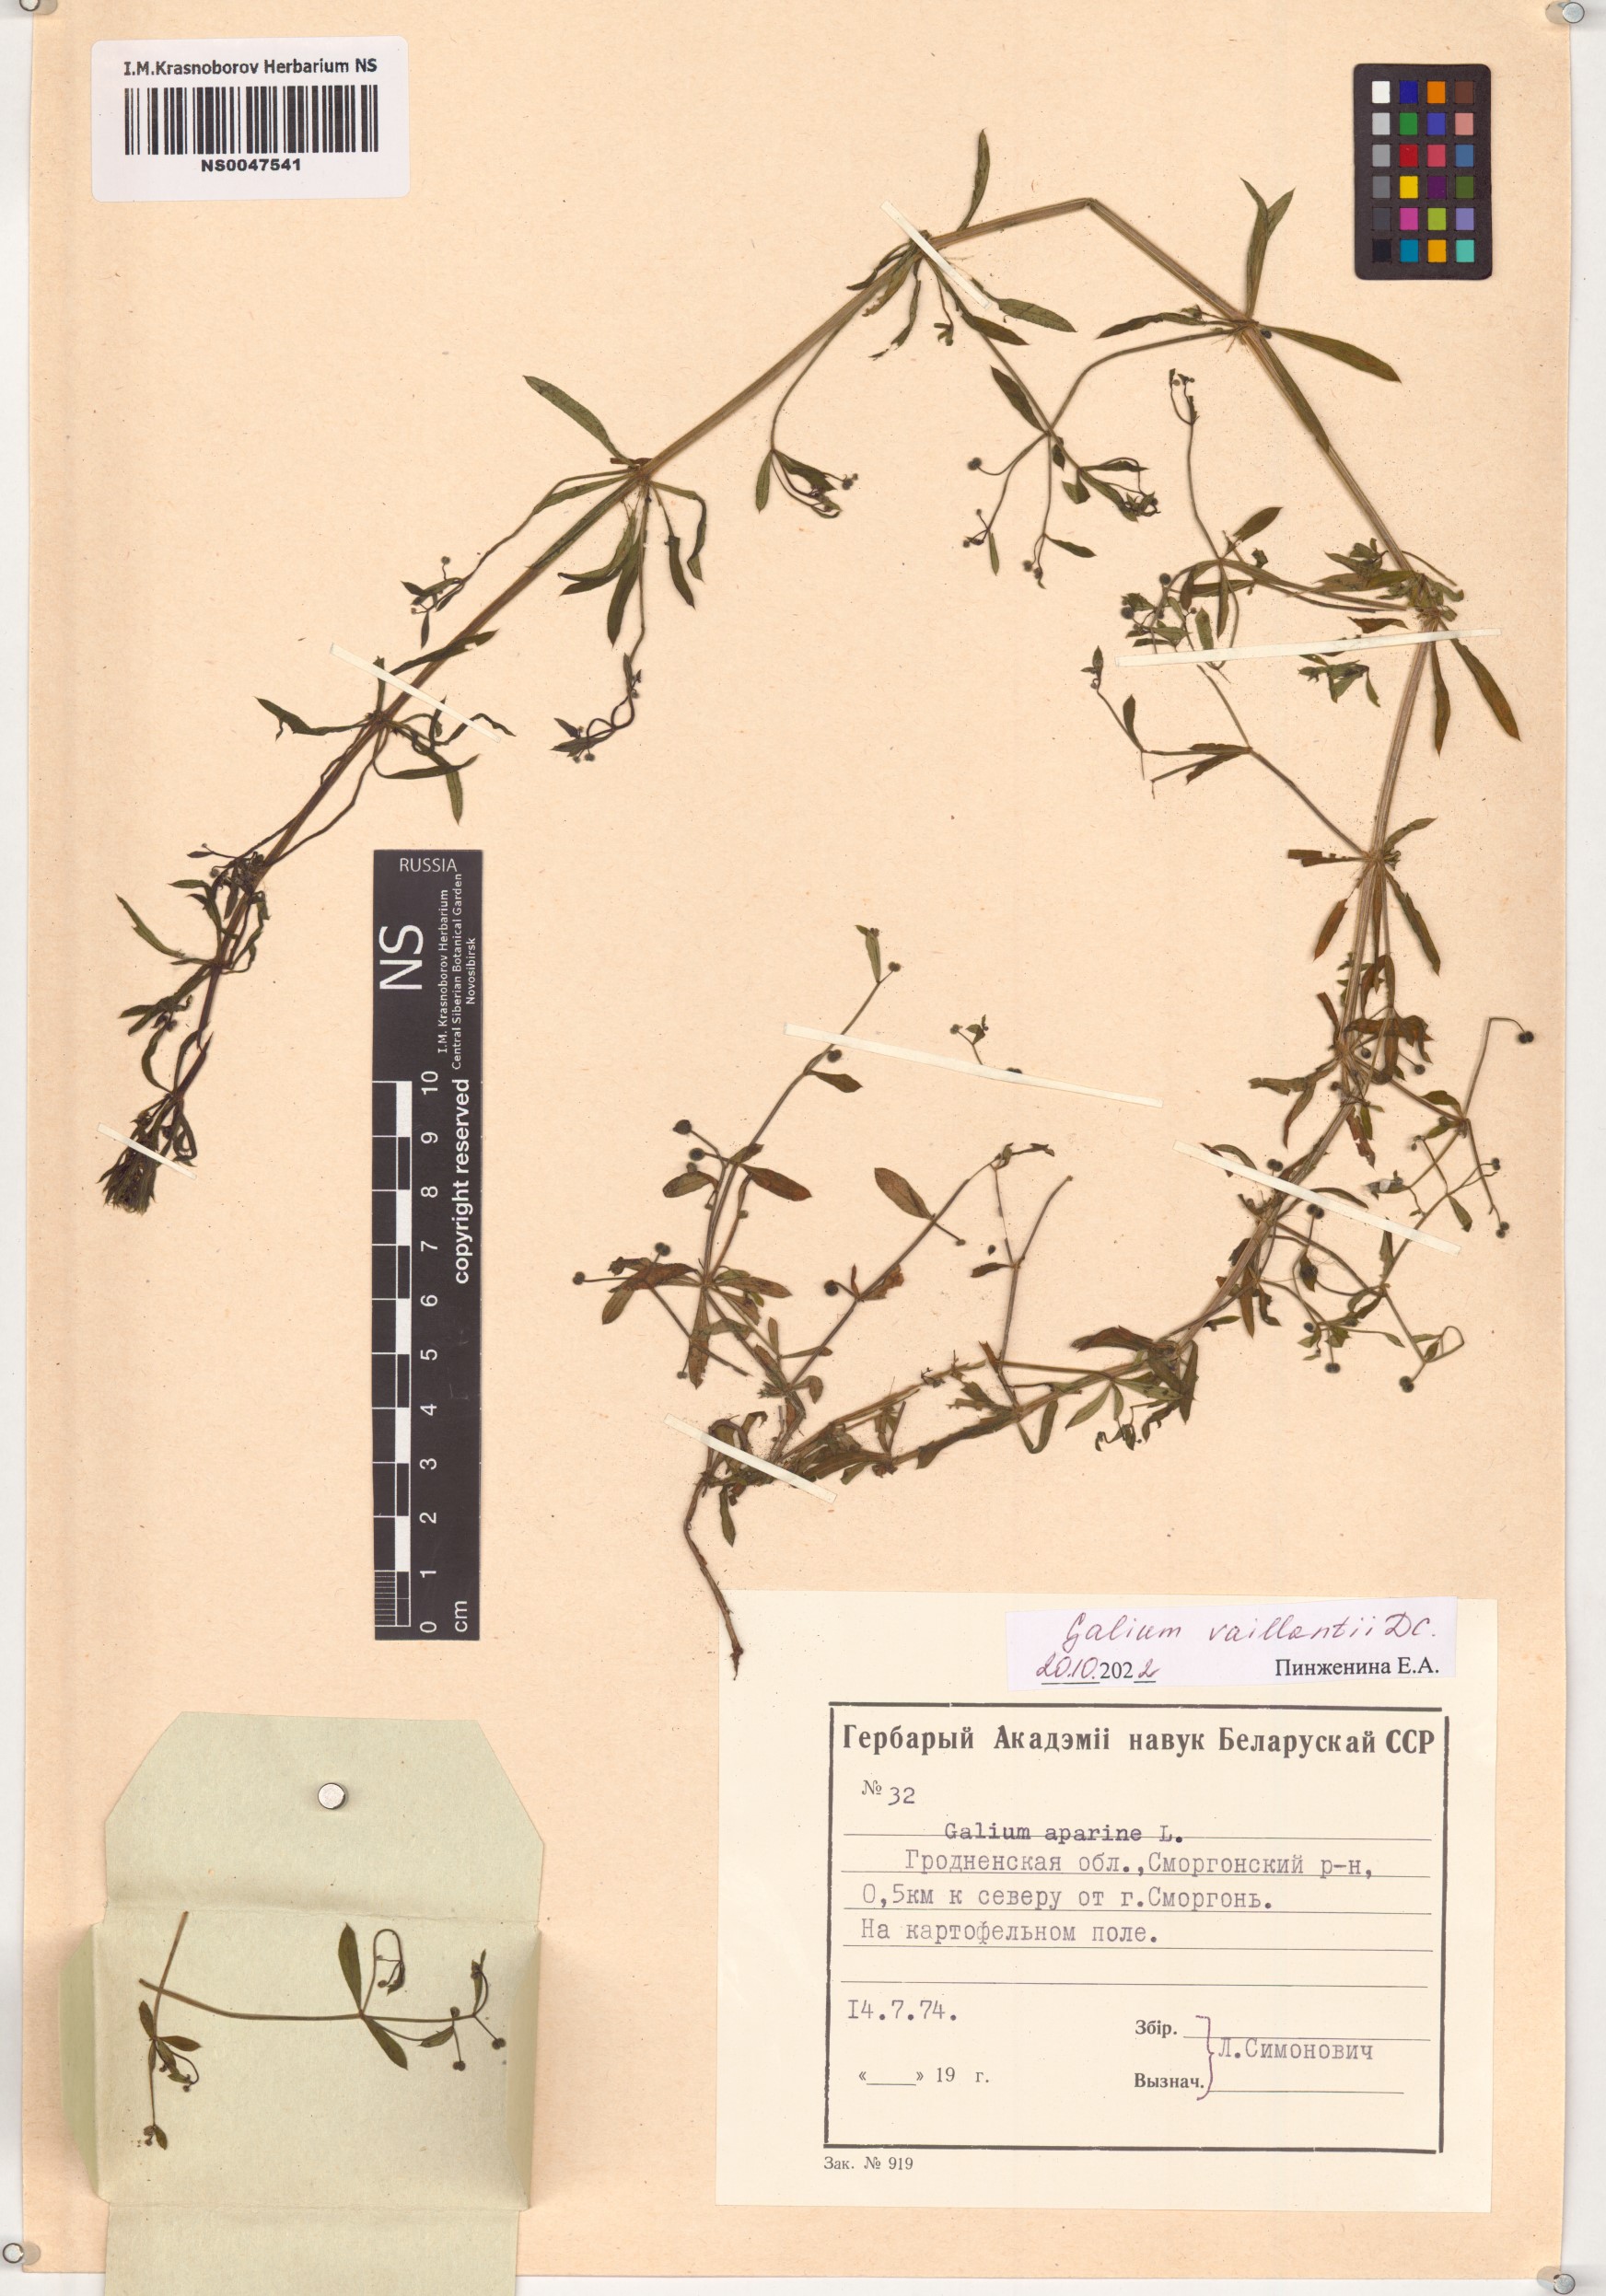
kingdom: Plantae
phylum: Tracheophyta
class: Magnoliopsida
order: Gentianales
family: Rubiaceae
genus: Galium
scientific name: Galium spurium
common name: False cleavers
